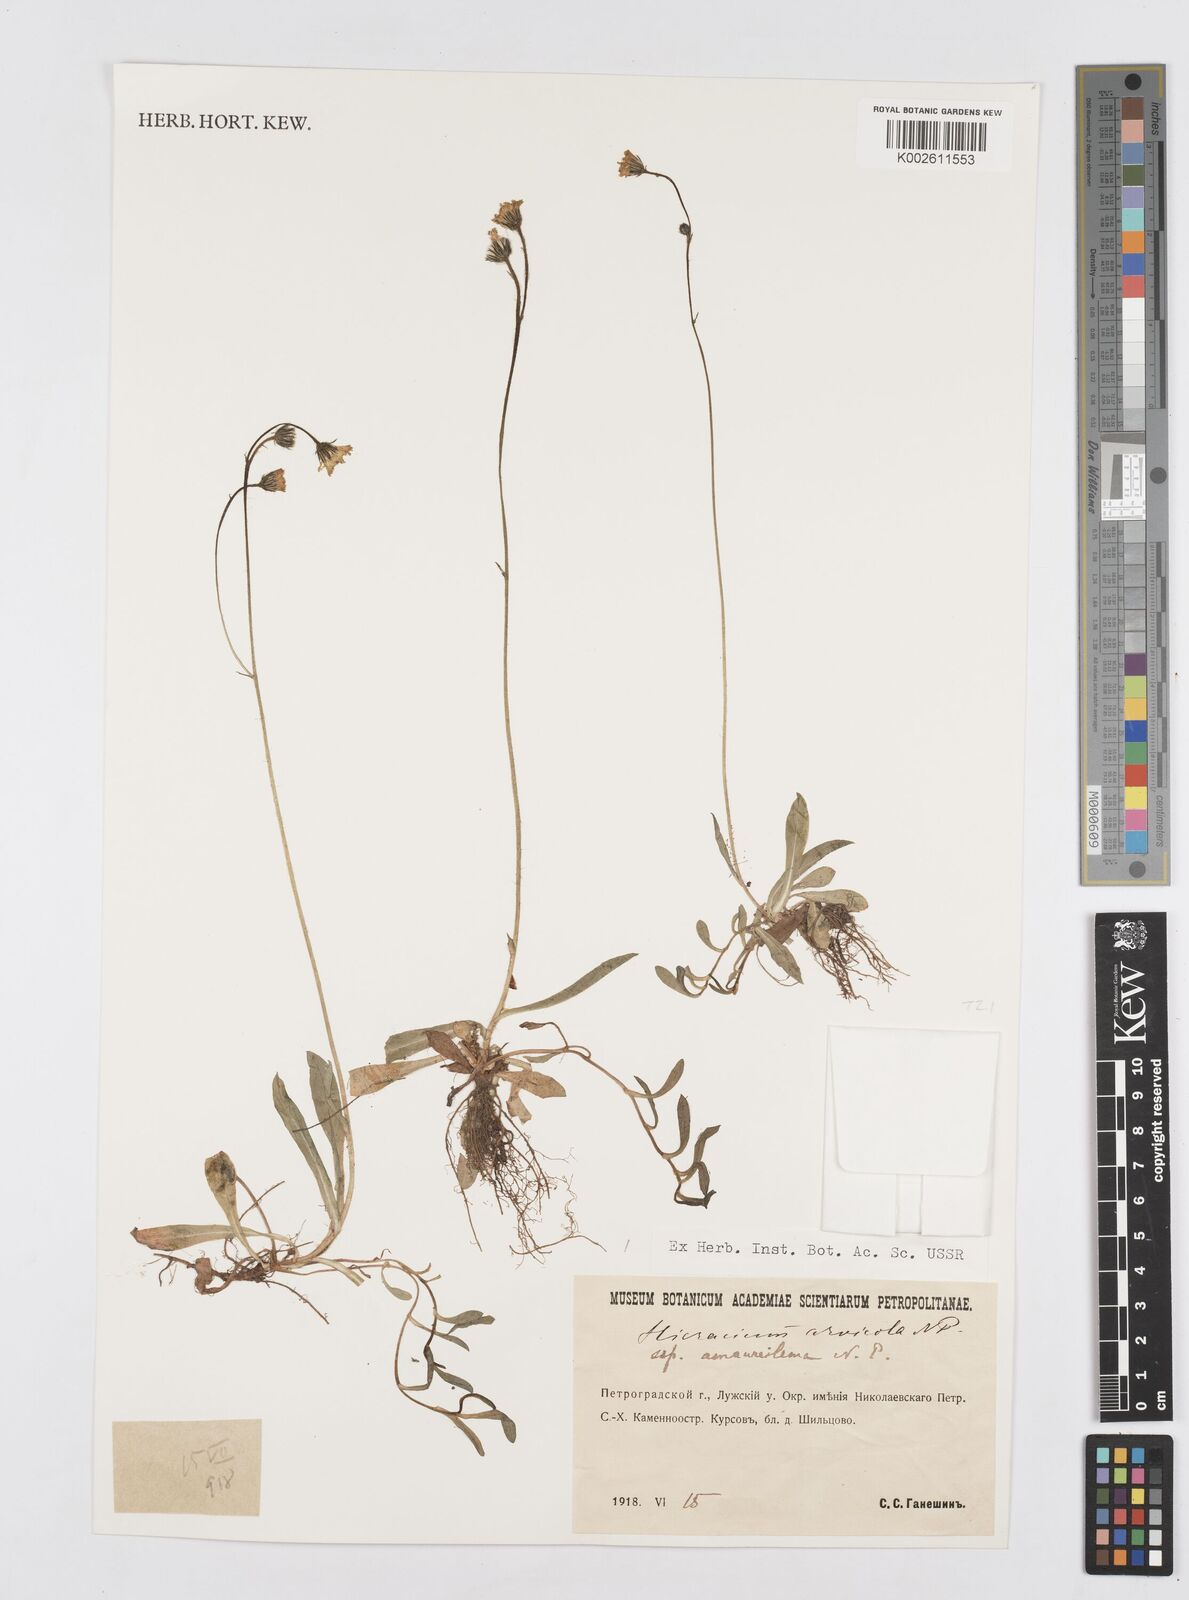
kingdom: Plantae
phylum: Tracheophyta
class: Magnoliopsida
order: Asterales
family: Asteraceae
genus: Pilosella
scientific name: Pilosella erythrochrista
